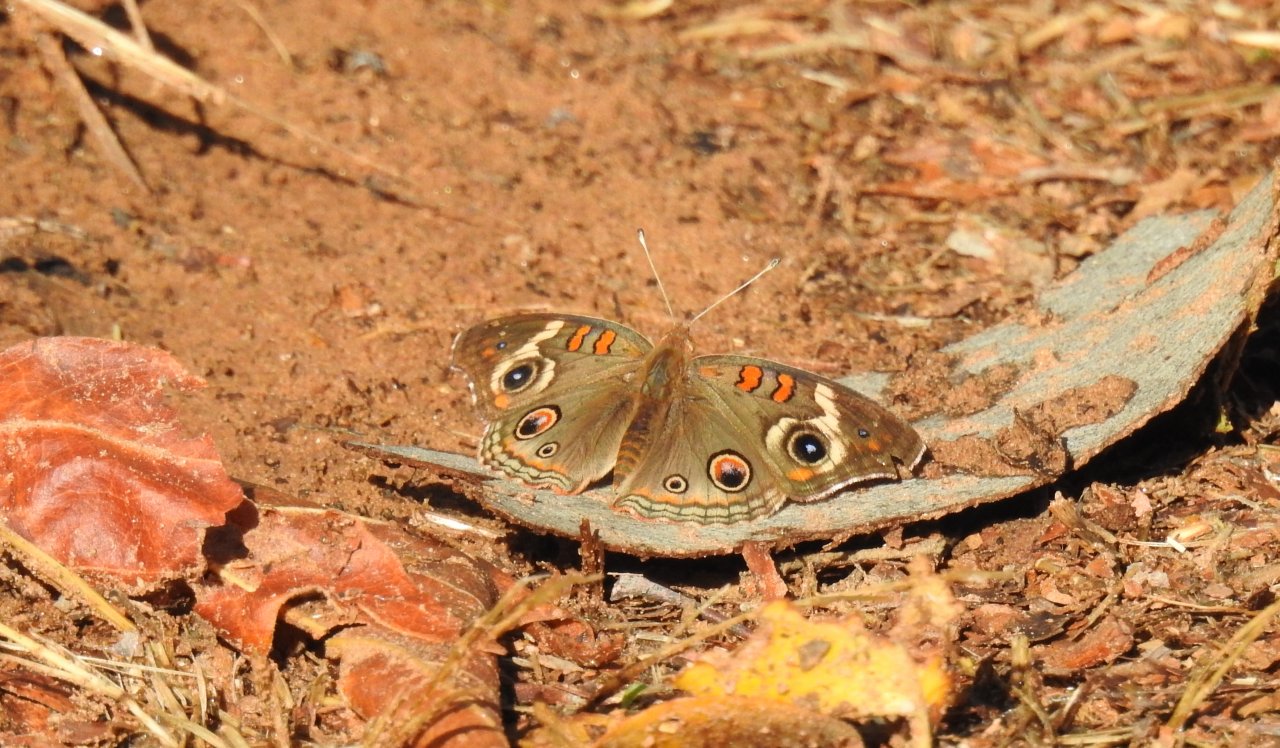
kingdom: Animalia
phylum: Arthropoda
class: Insecta
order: Lepidoptera
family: Nymphalidae
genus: Junonia
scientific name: Junonia coenia
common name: Common Buckeye
